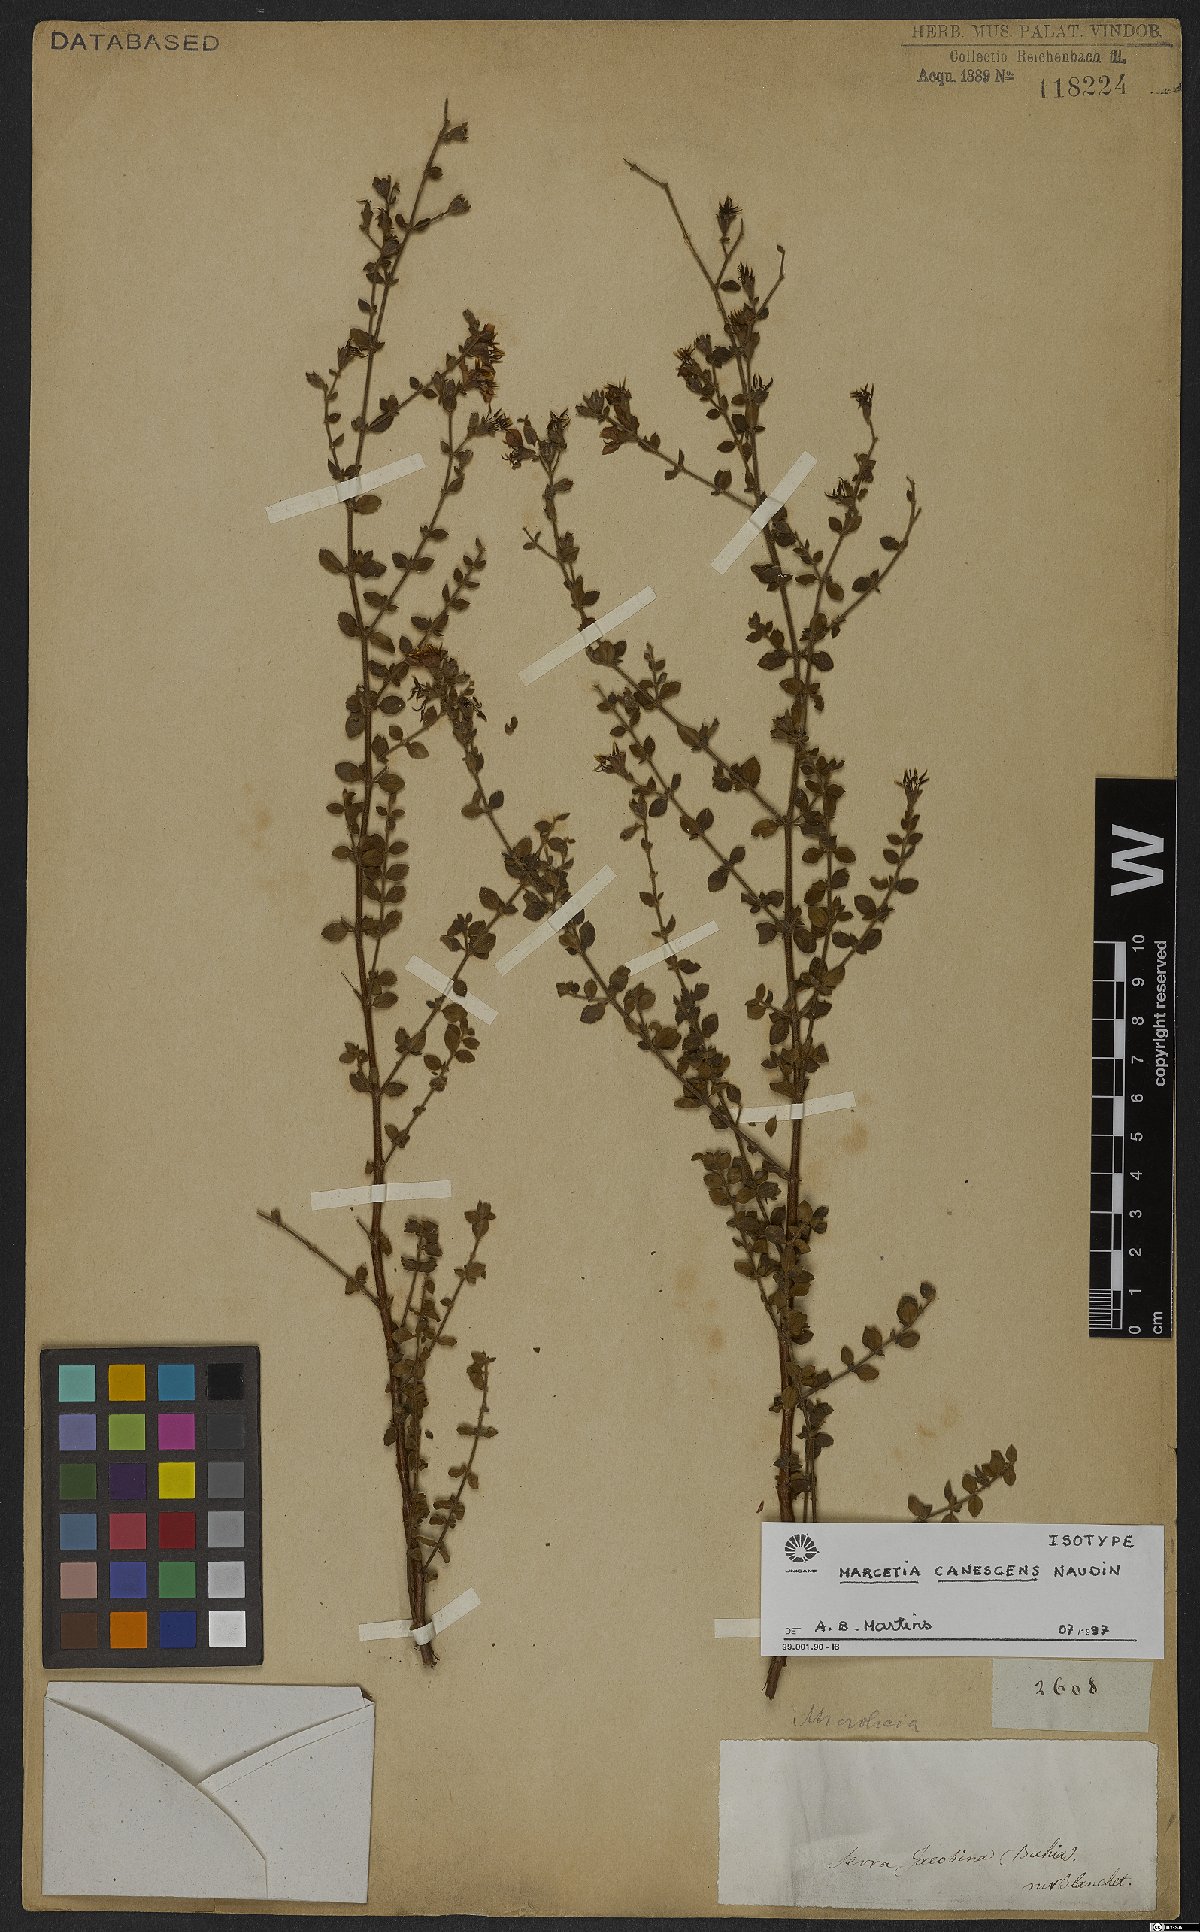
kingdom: Plantae
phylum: Tracheophyta
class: Magnoliopsida
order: Myrtales
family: Melastomataceae
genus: Marcetia
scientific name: Marcetia canescens
